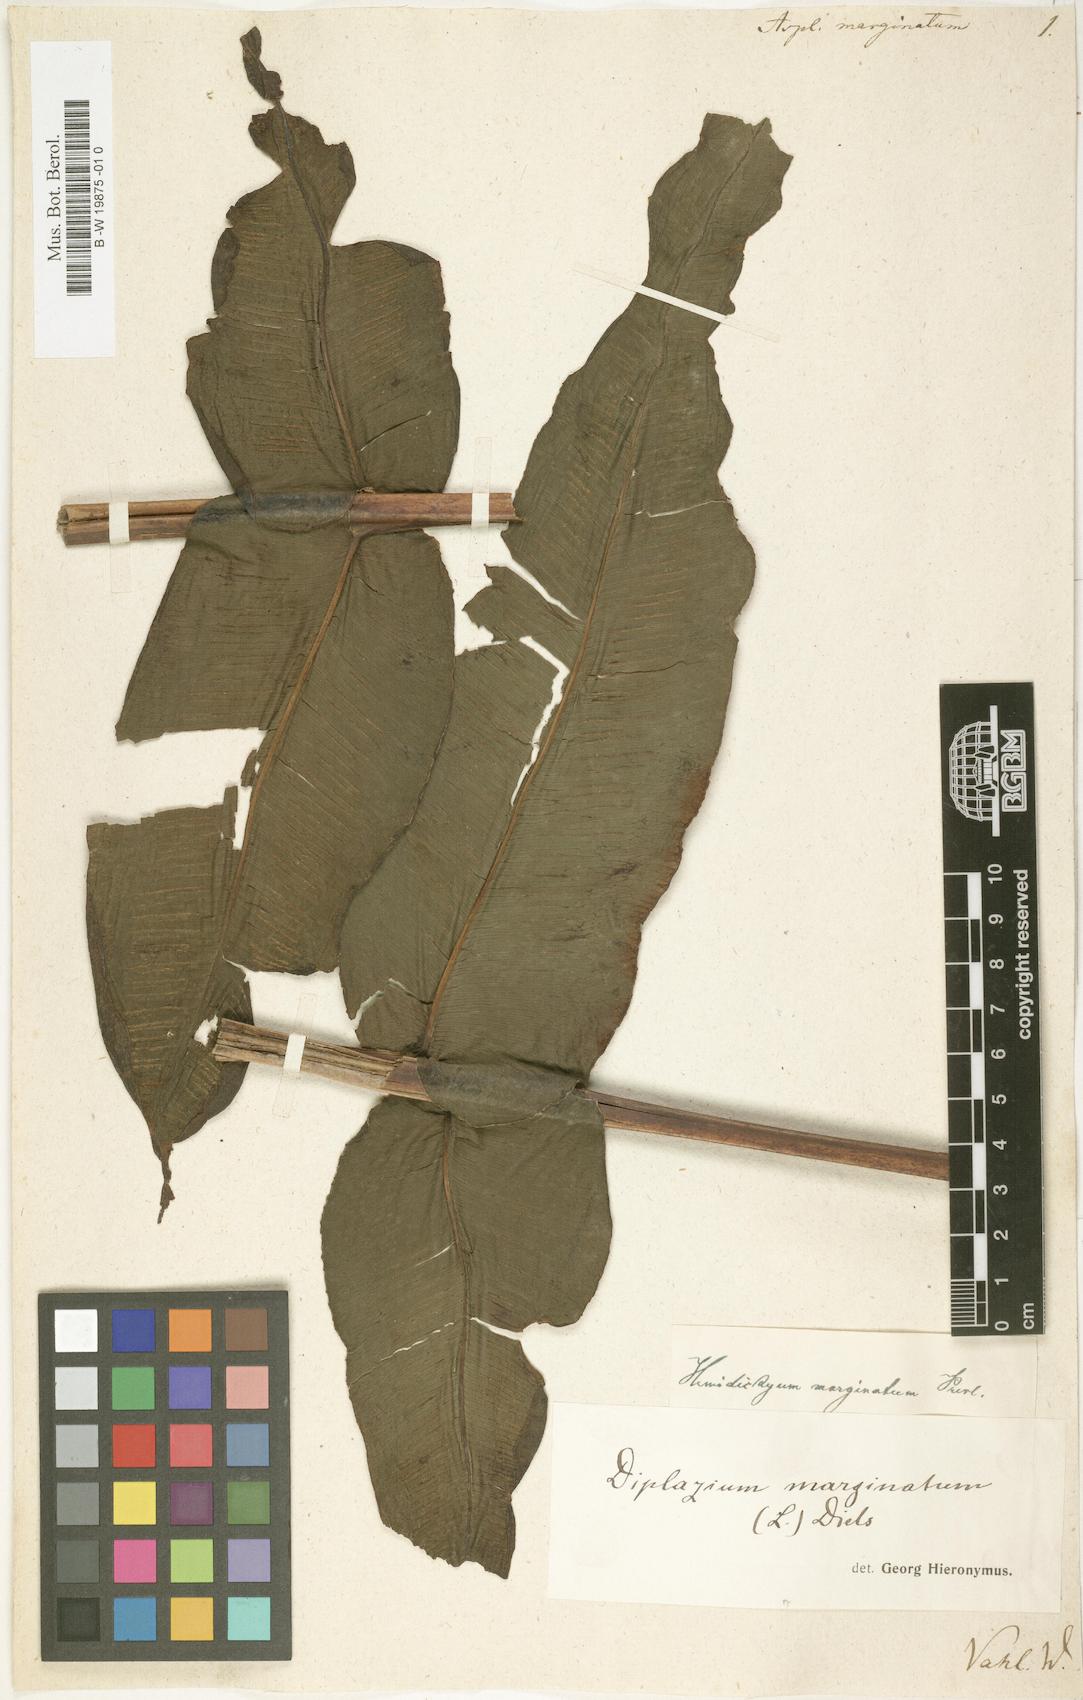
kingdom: Plantae
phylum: Tracheophyta
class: Polypodiopsida
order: Polypodiales
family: Aspleniaceae
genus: Asplenium
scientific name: Asplenium marginatum
